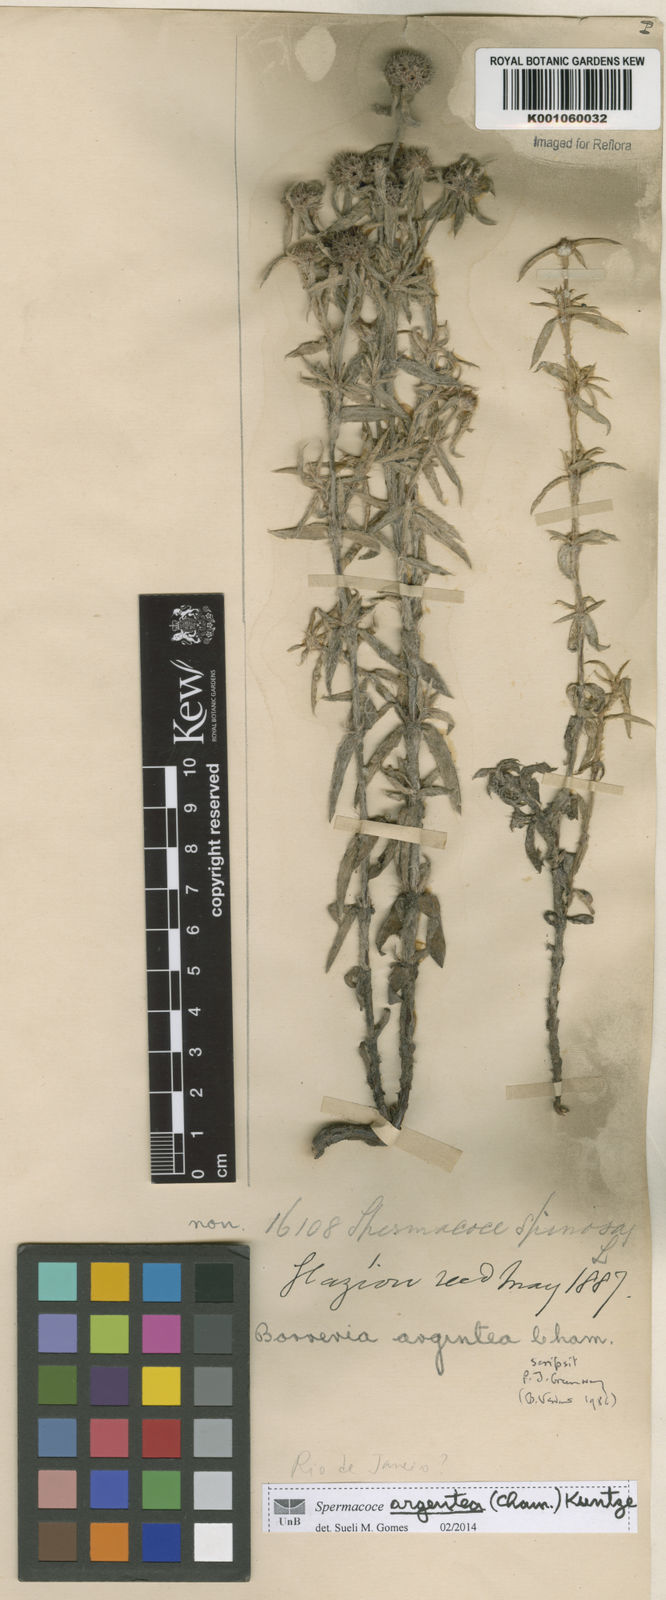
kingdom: Plantae
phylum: Tracheophyta
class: Magnoliopsida
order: Gentianales
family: Rubiaceae
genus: Spermacoce
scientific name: Spermacoce argentea
